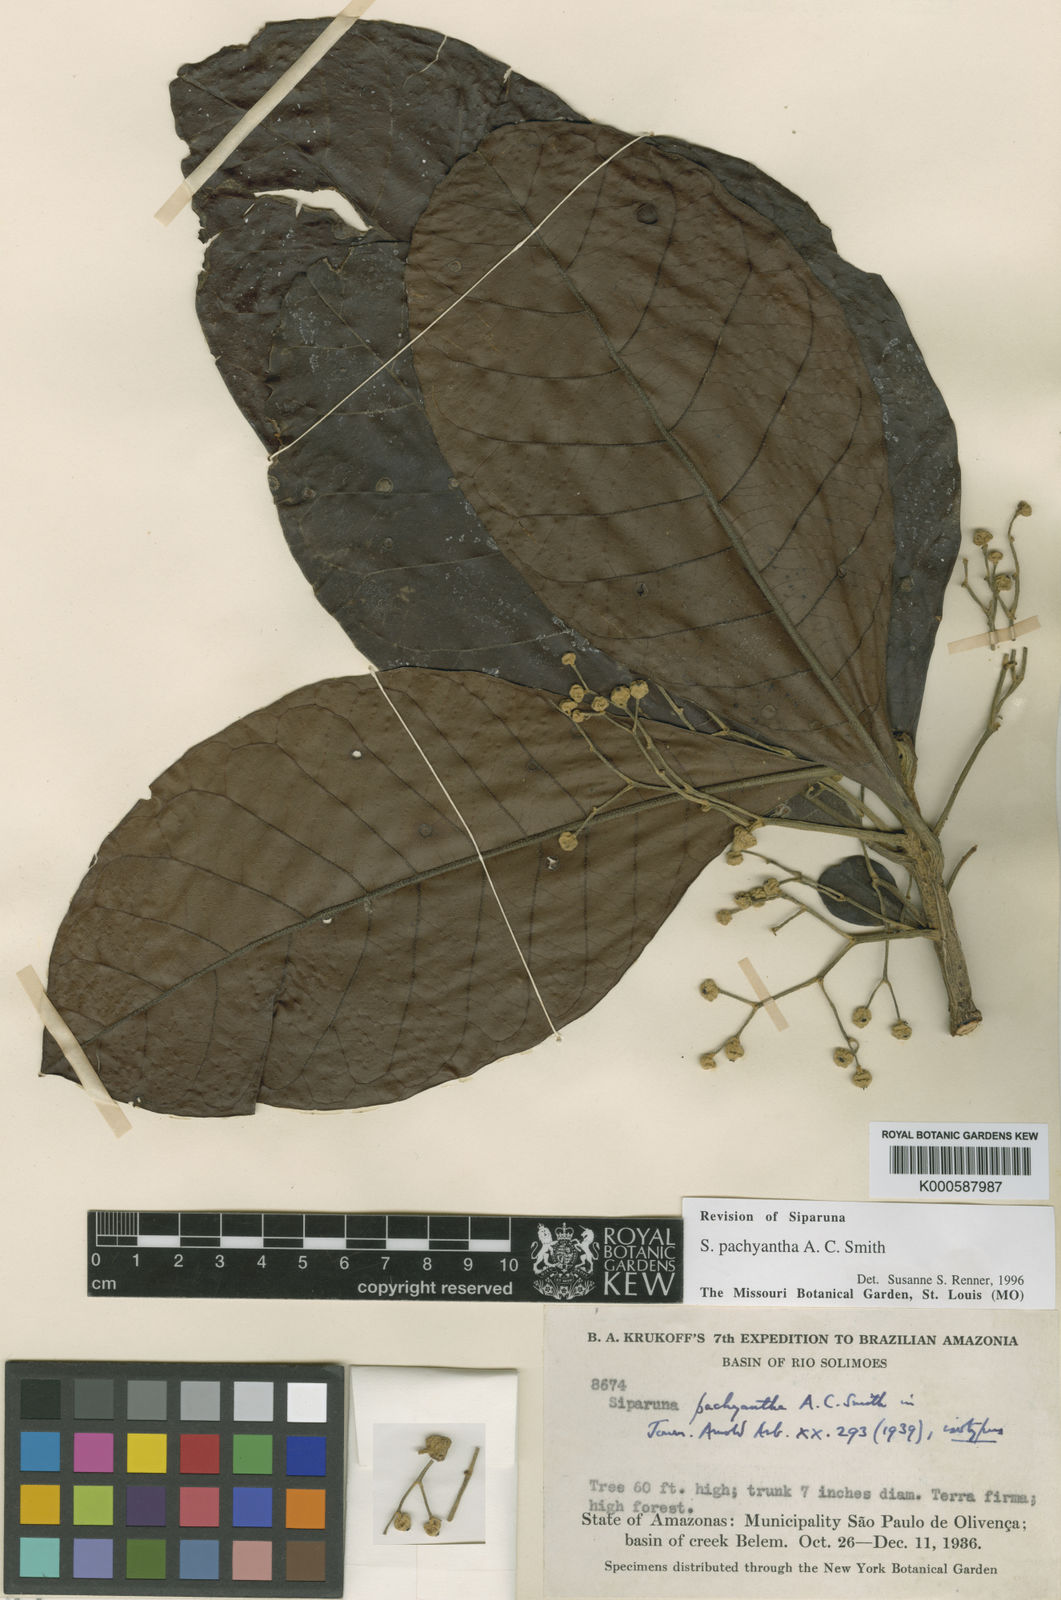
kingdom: Plantae
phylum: Tracheophyta
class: Magnoliopsida
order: Laurales
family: Siparunaceae
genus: Siparuna
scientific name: Siparuna pachyantha
